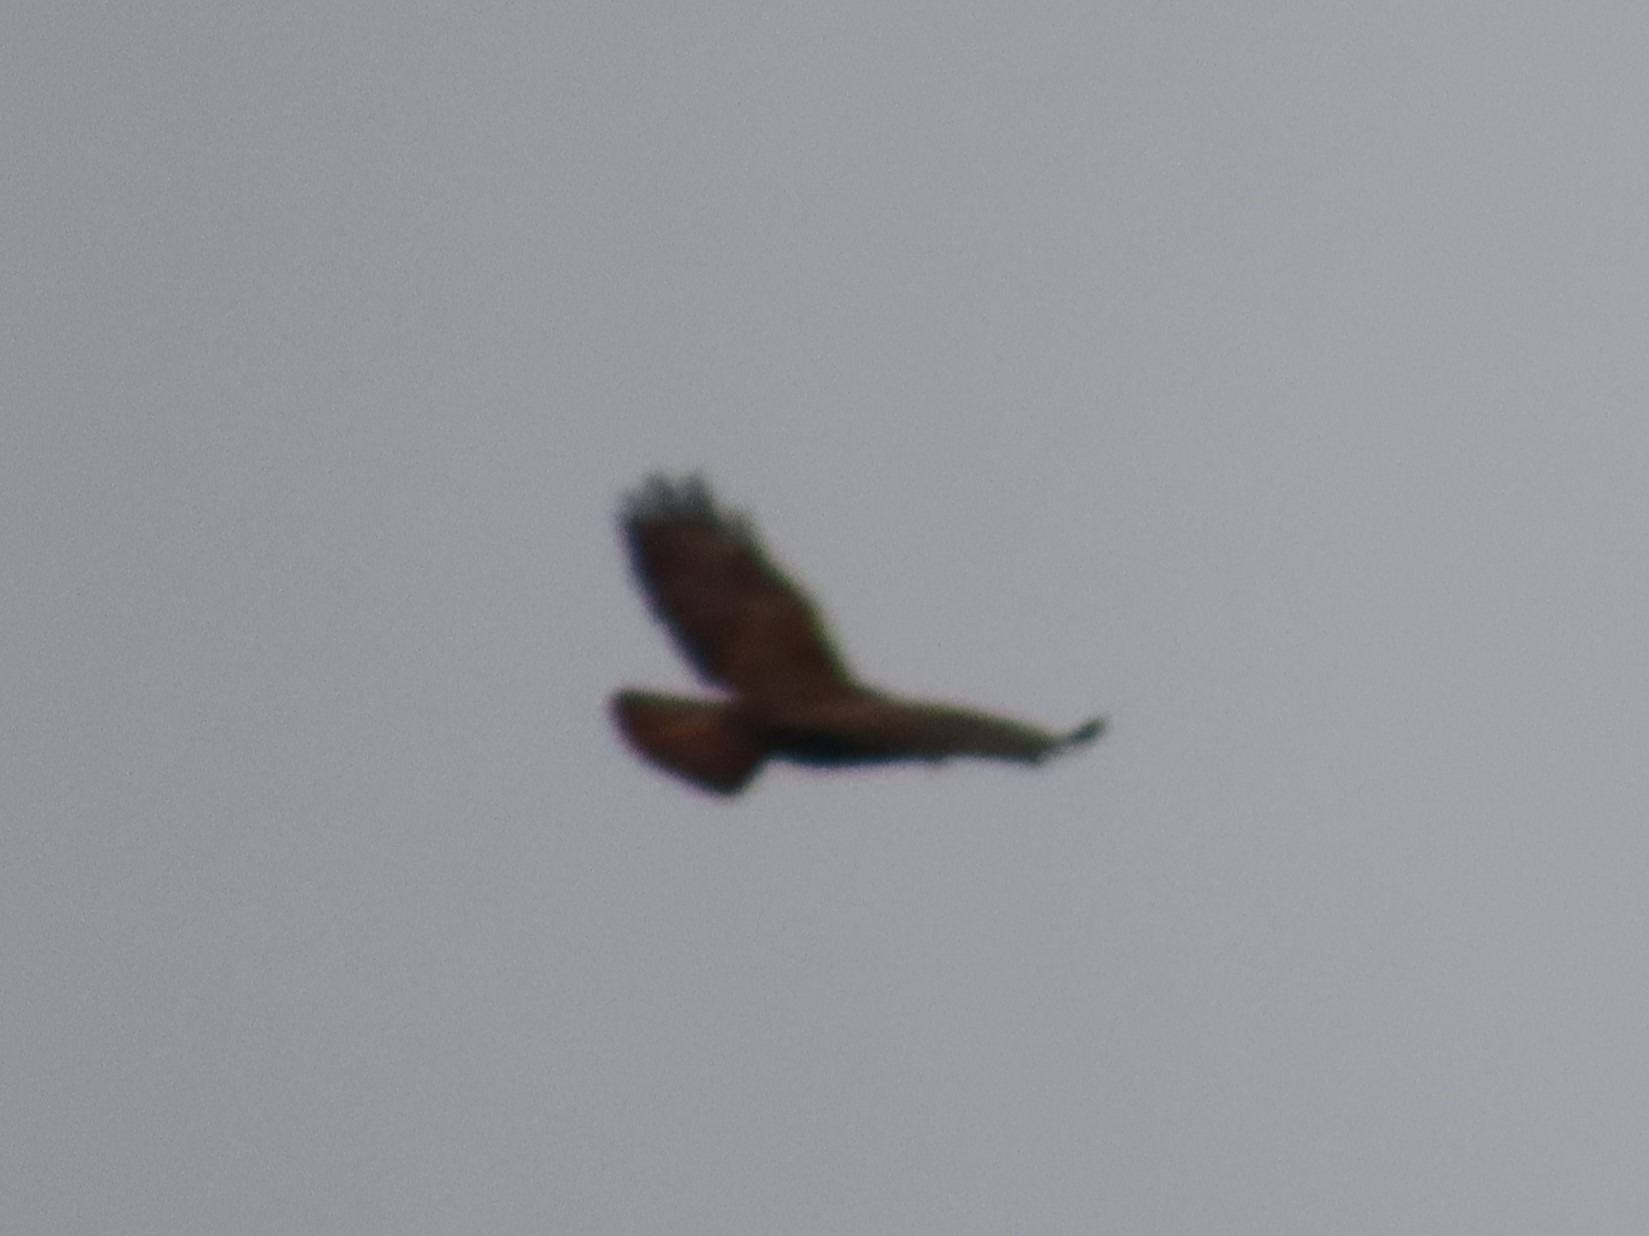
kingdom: Animalia
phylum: Chordata
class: Aves
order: Accipitriformes
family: Accipitridae
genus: Buteo
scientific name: Buteo buteo
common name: Musvåge
